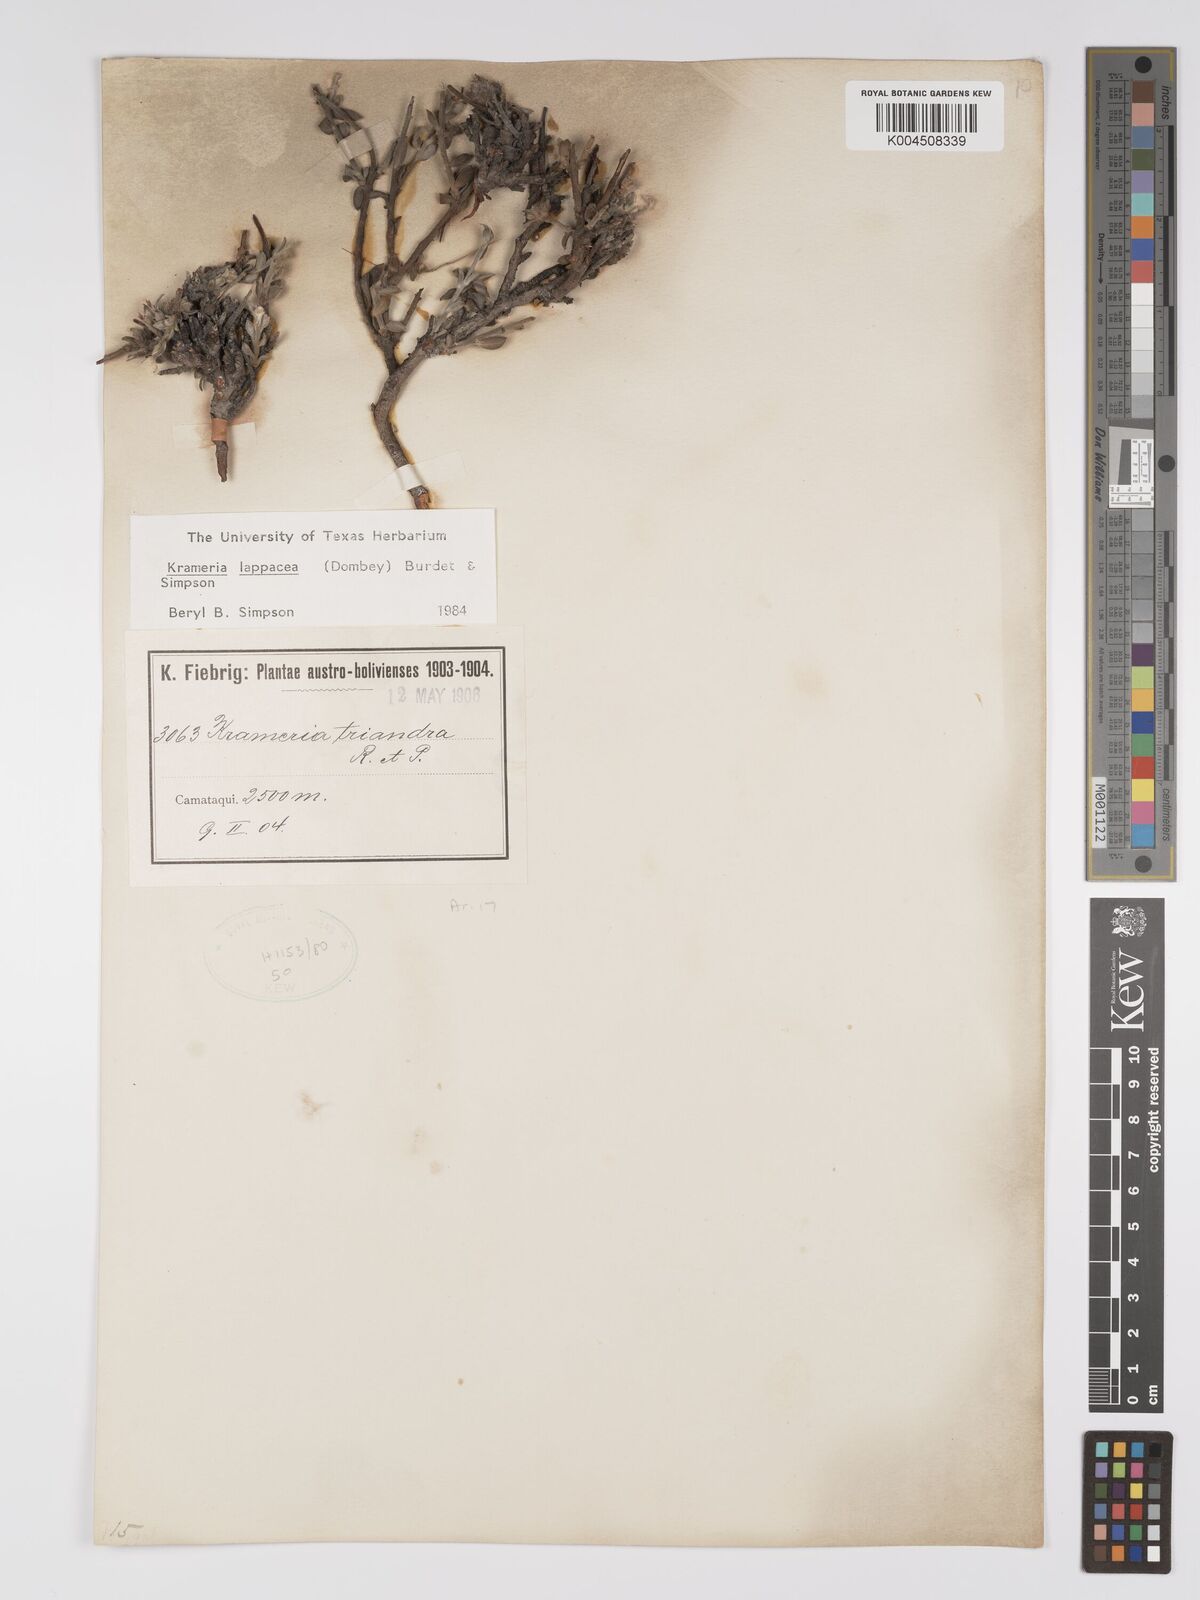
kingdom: Plantae
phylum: Tracheophyta
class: Magnoliopsida
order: Zygophyllales
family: Krameriaceae
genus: Krameria
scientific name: Krameria lappacea
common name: Rhatany
